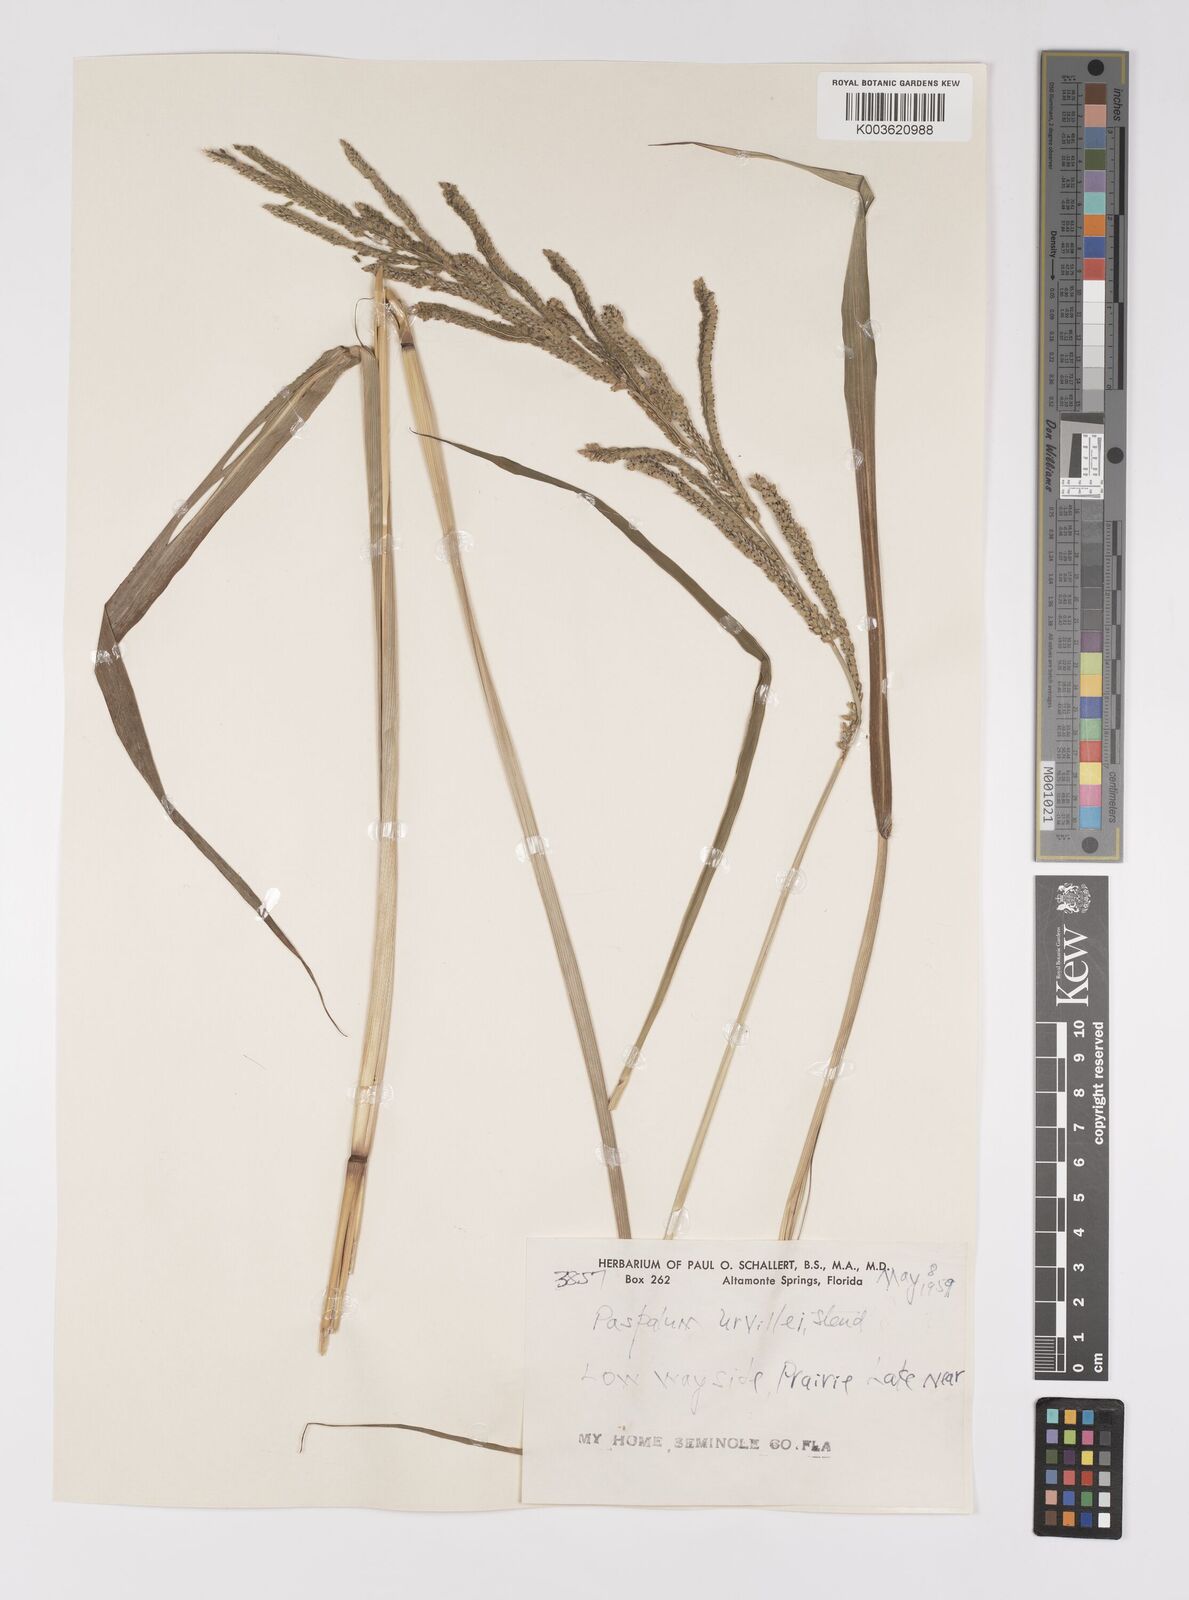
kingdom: Plantae
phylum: Tracheophyta
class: Liliopsida
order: Poales
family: Poaceae
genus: Paspalum
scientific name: Paspalum urvillei
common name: Vasey's grass
